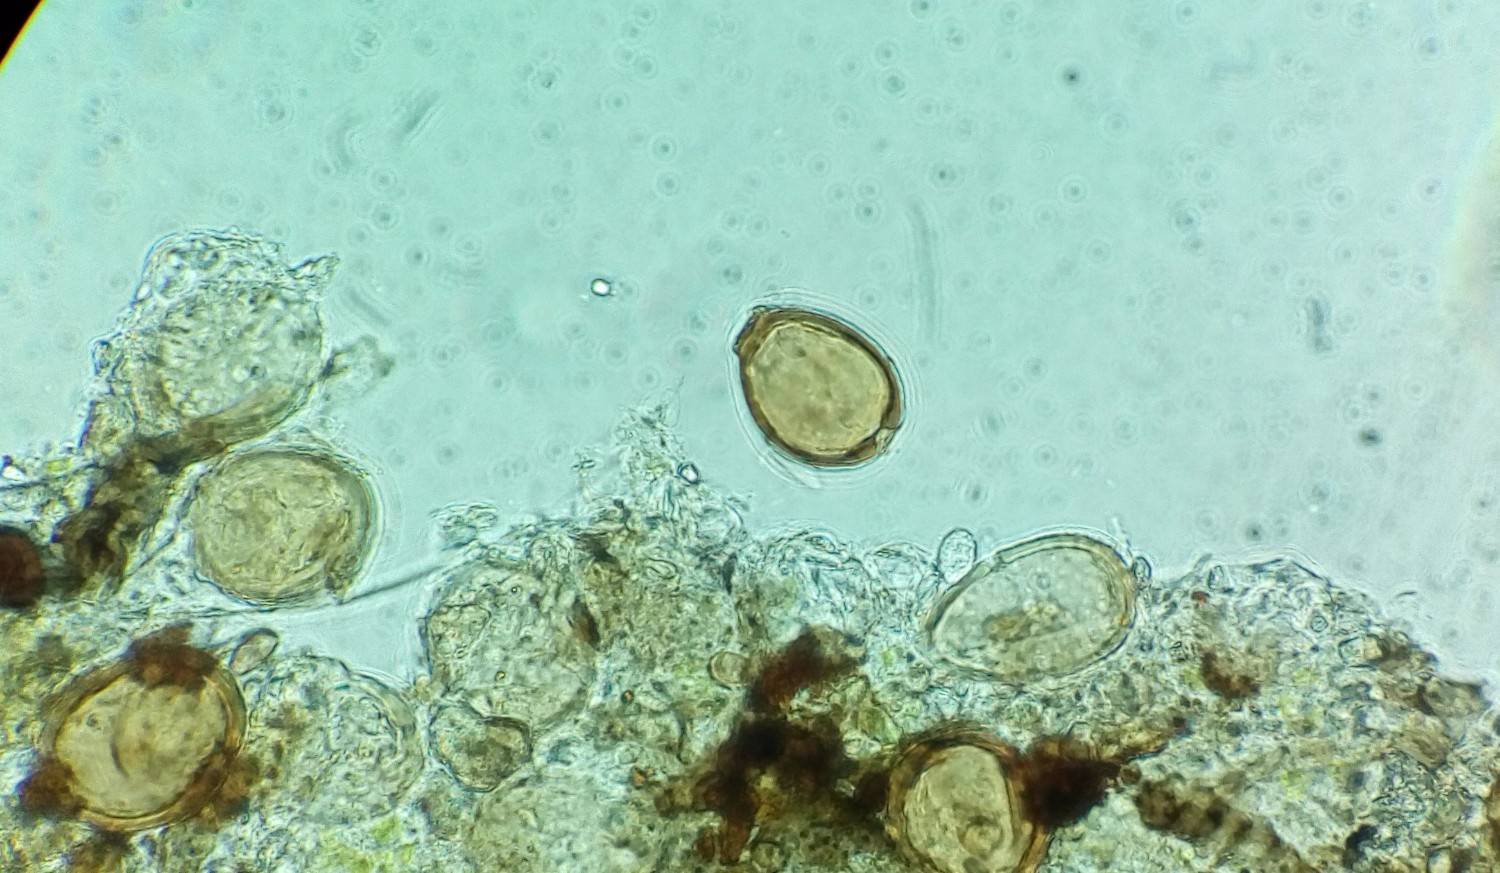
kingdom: Fungi
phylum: Basidiomycota
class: Pucciniomycetes
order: Pucciniales
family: Melampsoraceae
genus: Melampsora
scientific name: Melampsora epitea
